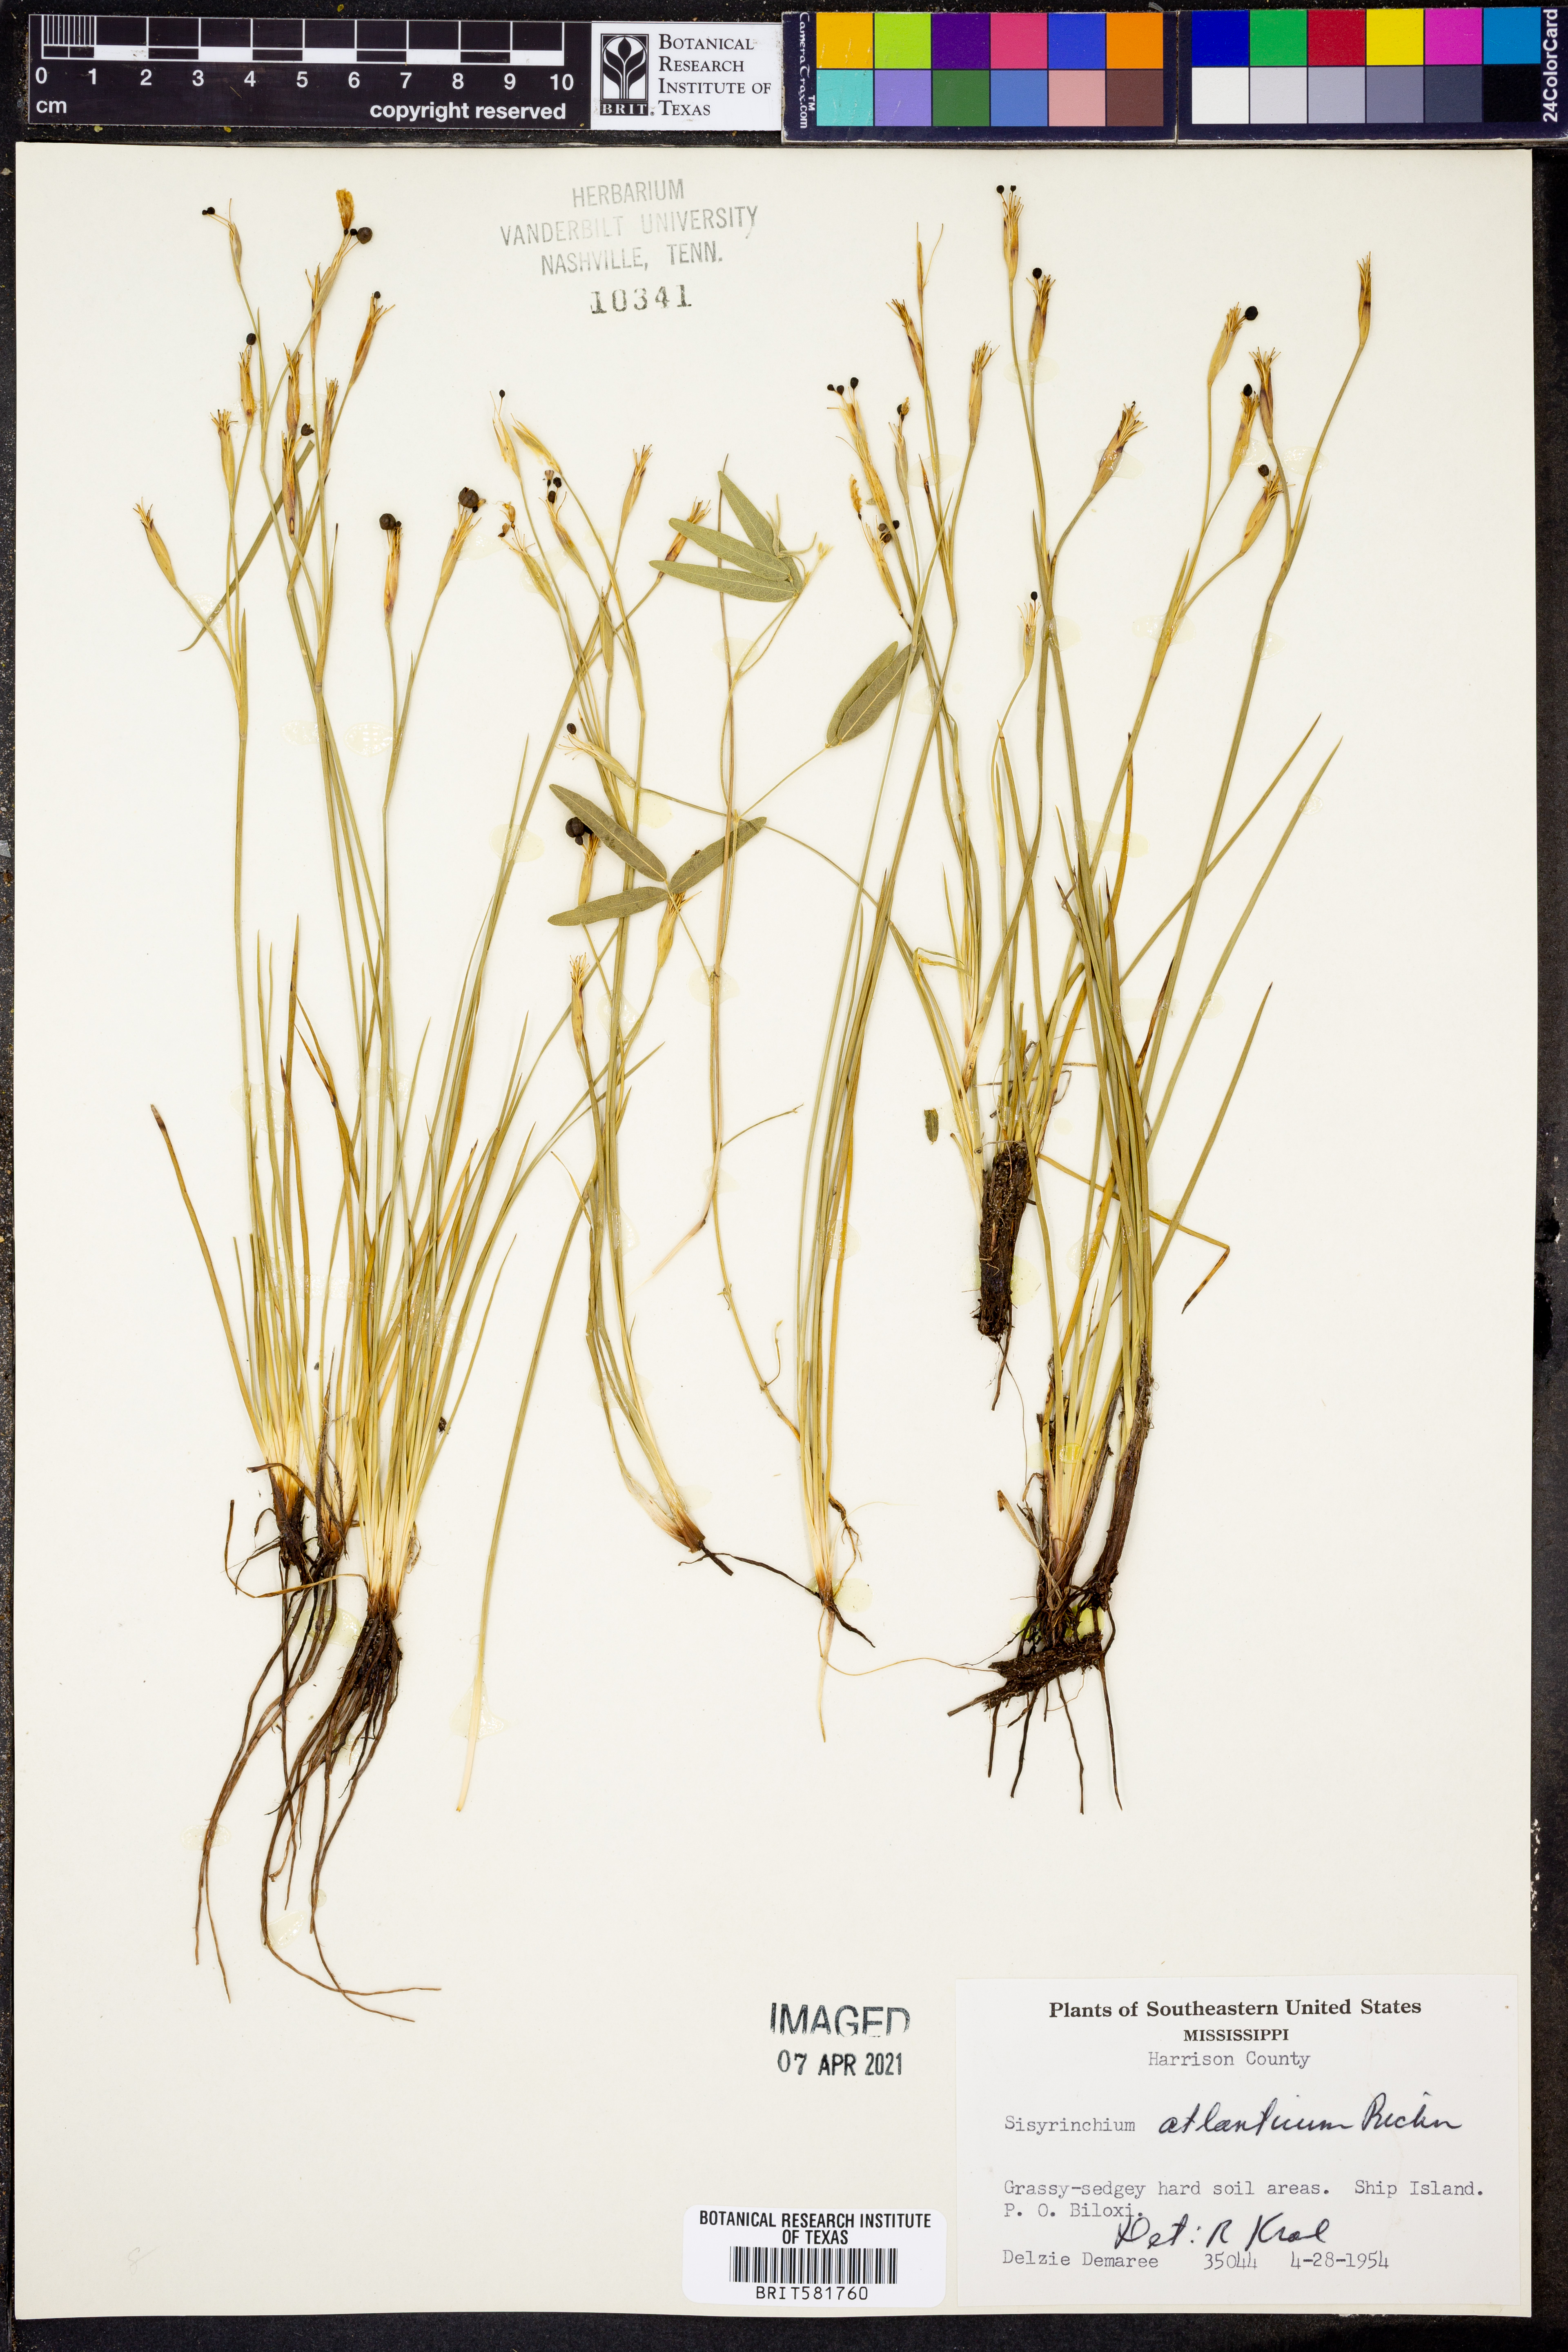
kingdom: Plantae
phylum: Tracheophyta
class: Liliopsida
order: Asparagales
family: Iridaceae
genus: Sisyrinchium
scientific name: Sisyrinchium atlanticum
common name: Eastern blue-eyed-grass
